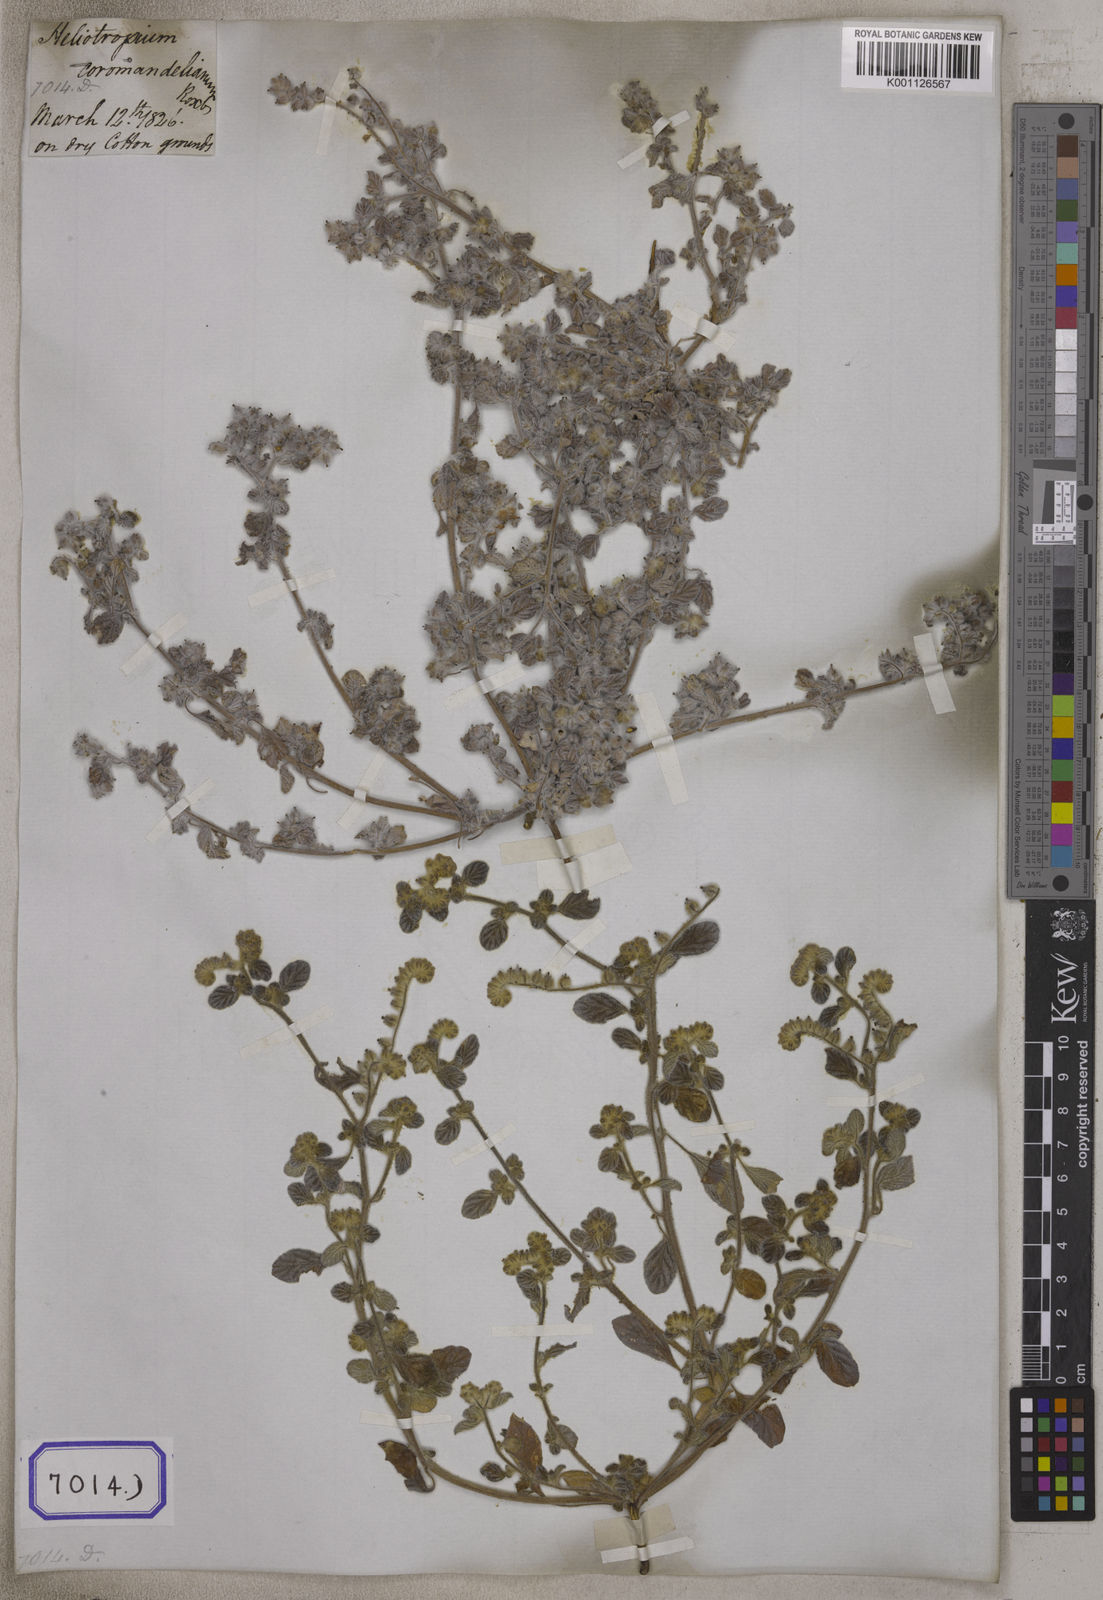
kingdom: Plantae
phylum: Tracheophyta
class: Magnoliopsida
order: Boraginales
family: Heliotropiaceae
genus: Heliotropium
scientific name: Heliotropium supinum
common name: Dwarf heliotrope
